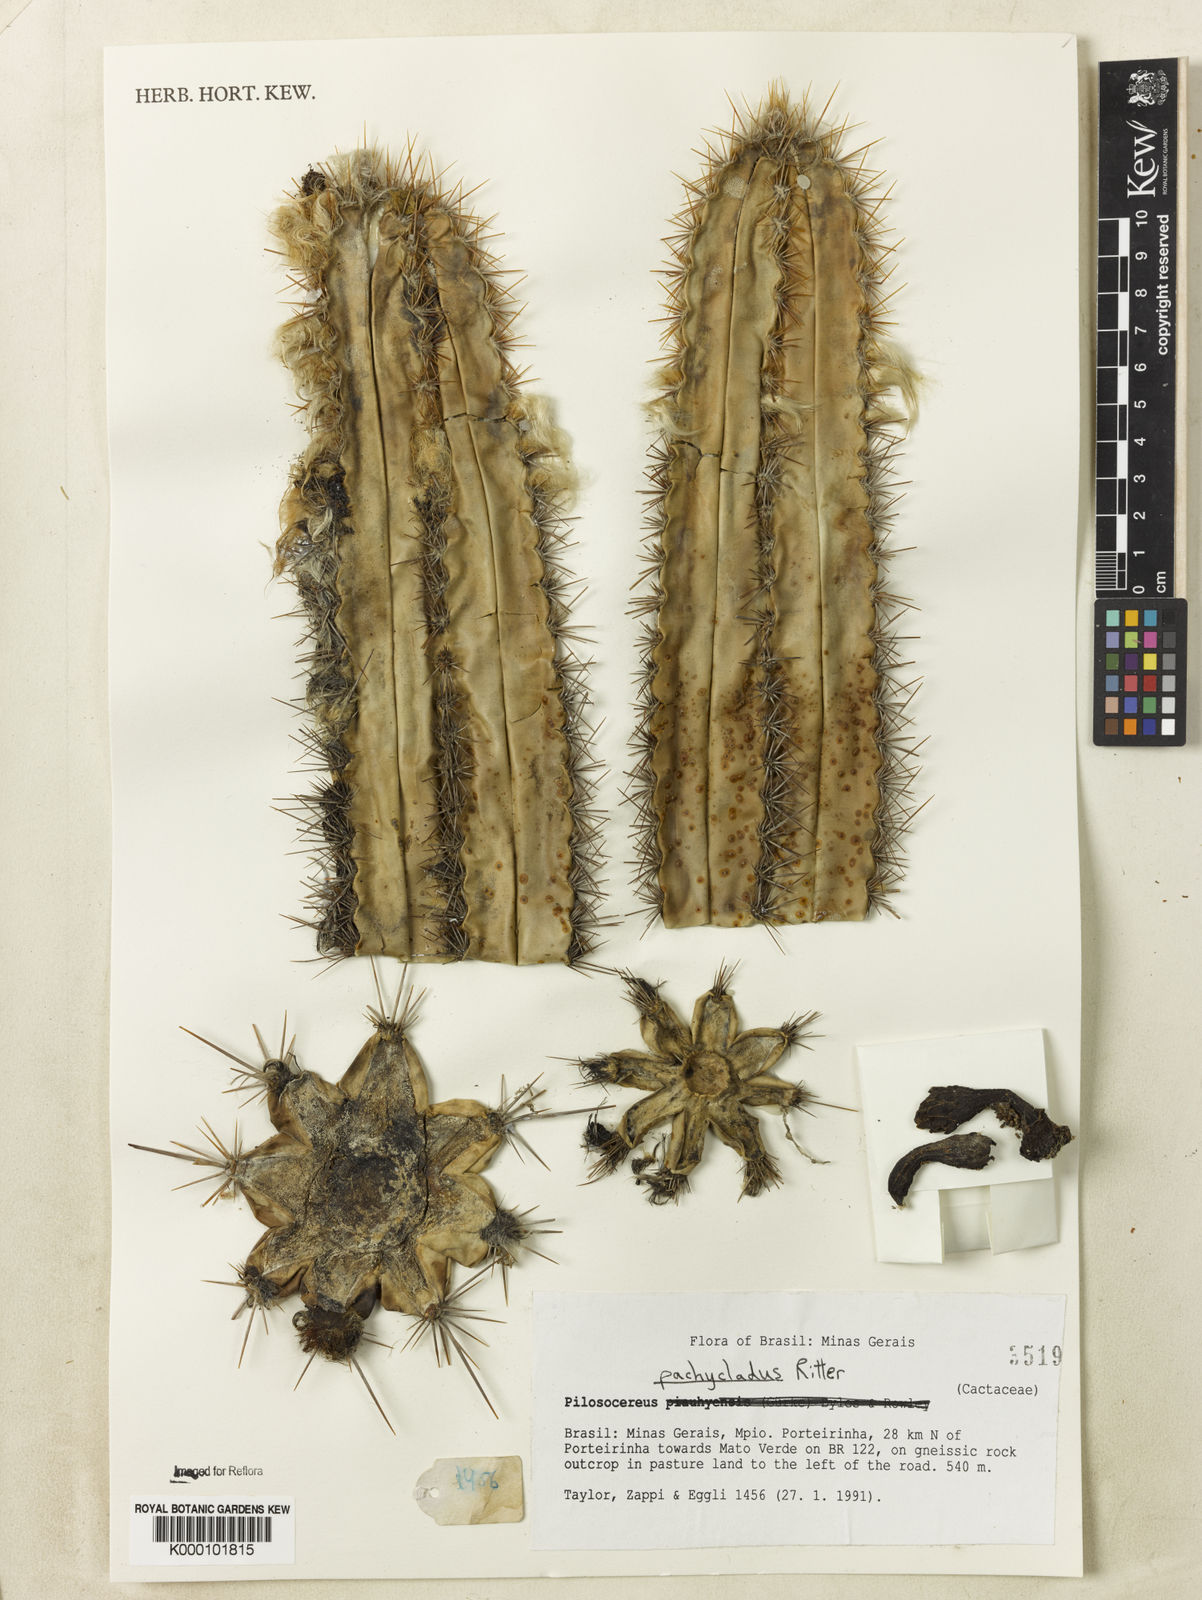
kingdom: Plantae
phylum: Tracheophyta
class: Magnoliopsida
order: Caryophyllales
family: Cactaceae
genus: Pilosocereus
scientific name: Pilosocereus pachycladus
